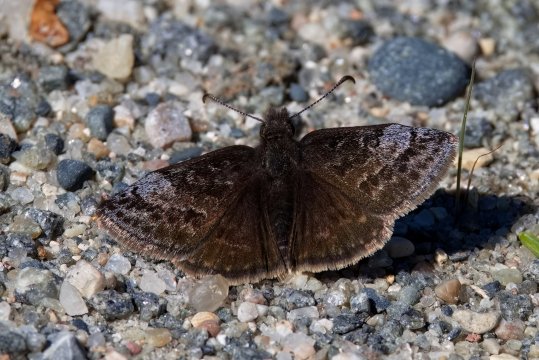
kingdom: Animalia
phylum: Arthropoda
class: Insecta
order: Lepidoptera
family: Hesperiidae
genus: Erynnis
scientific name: Erynnis icelus
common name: Dreamy Duskywing
